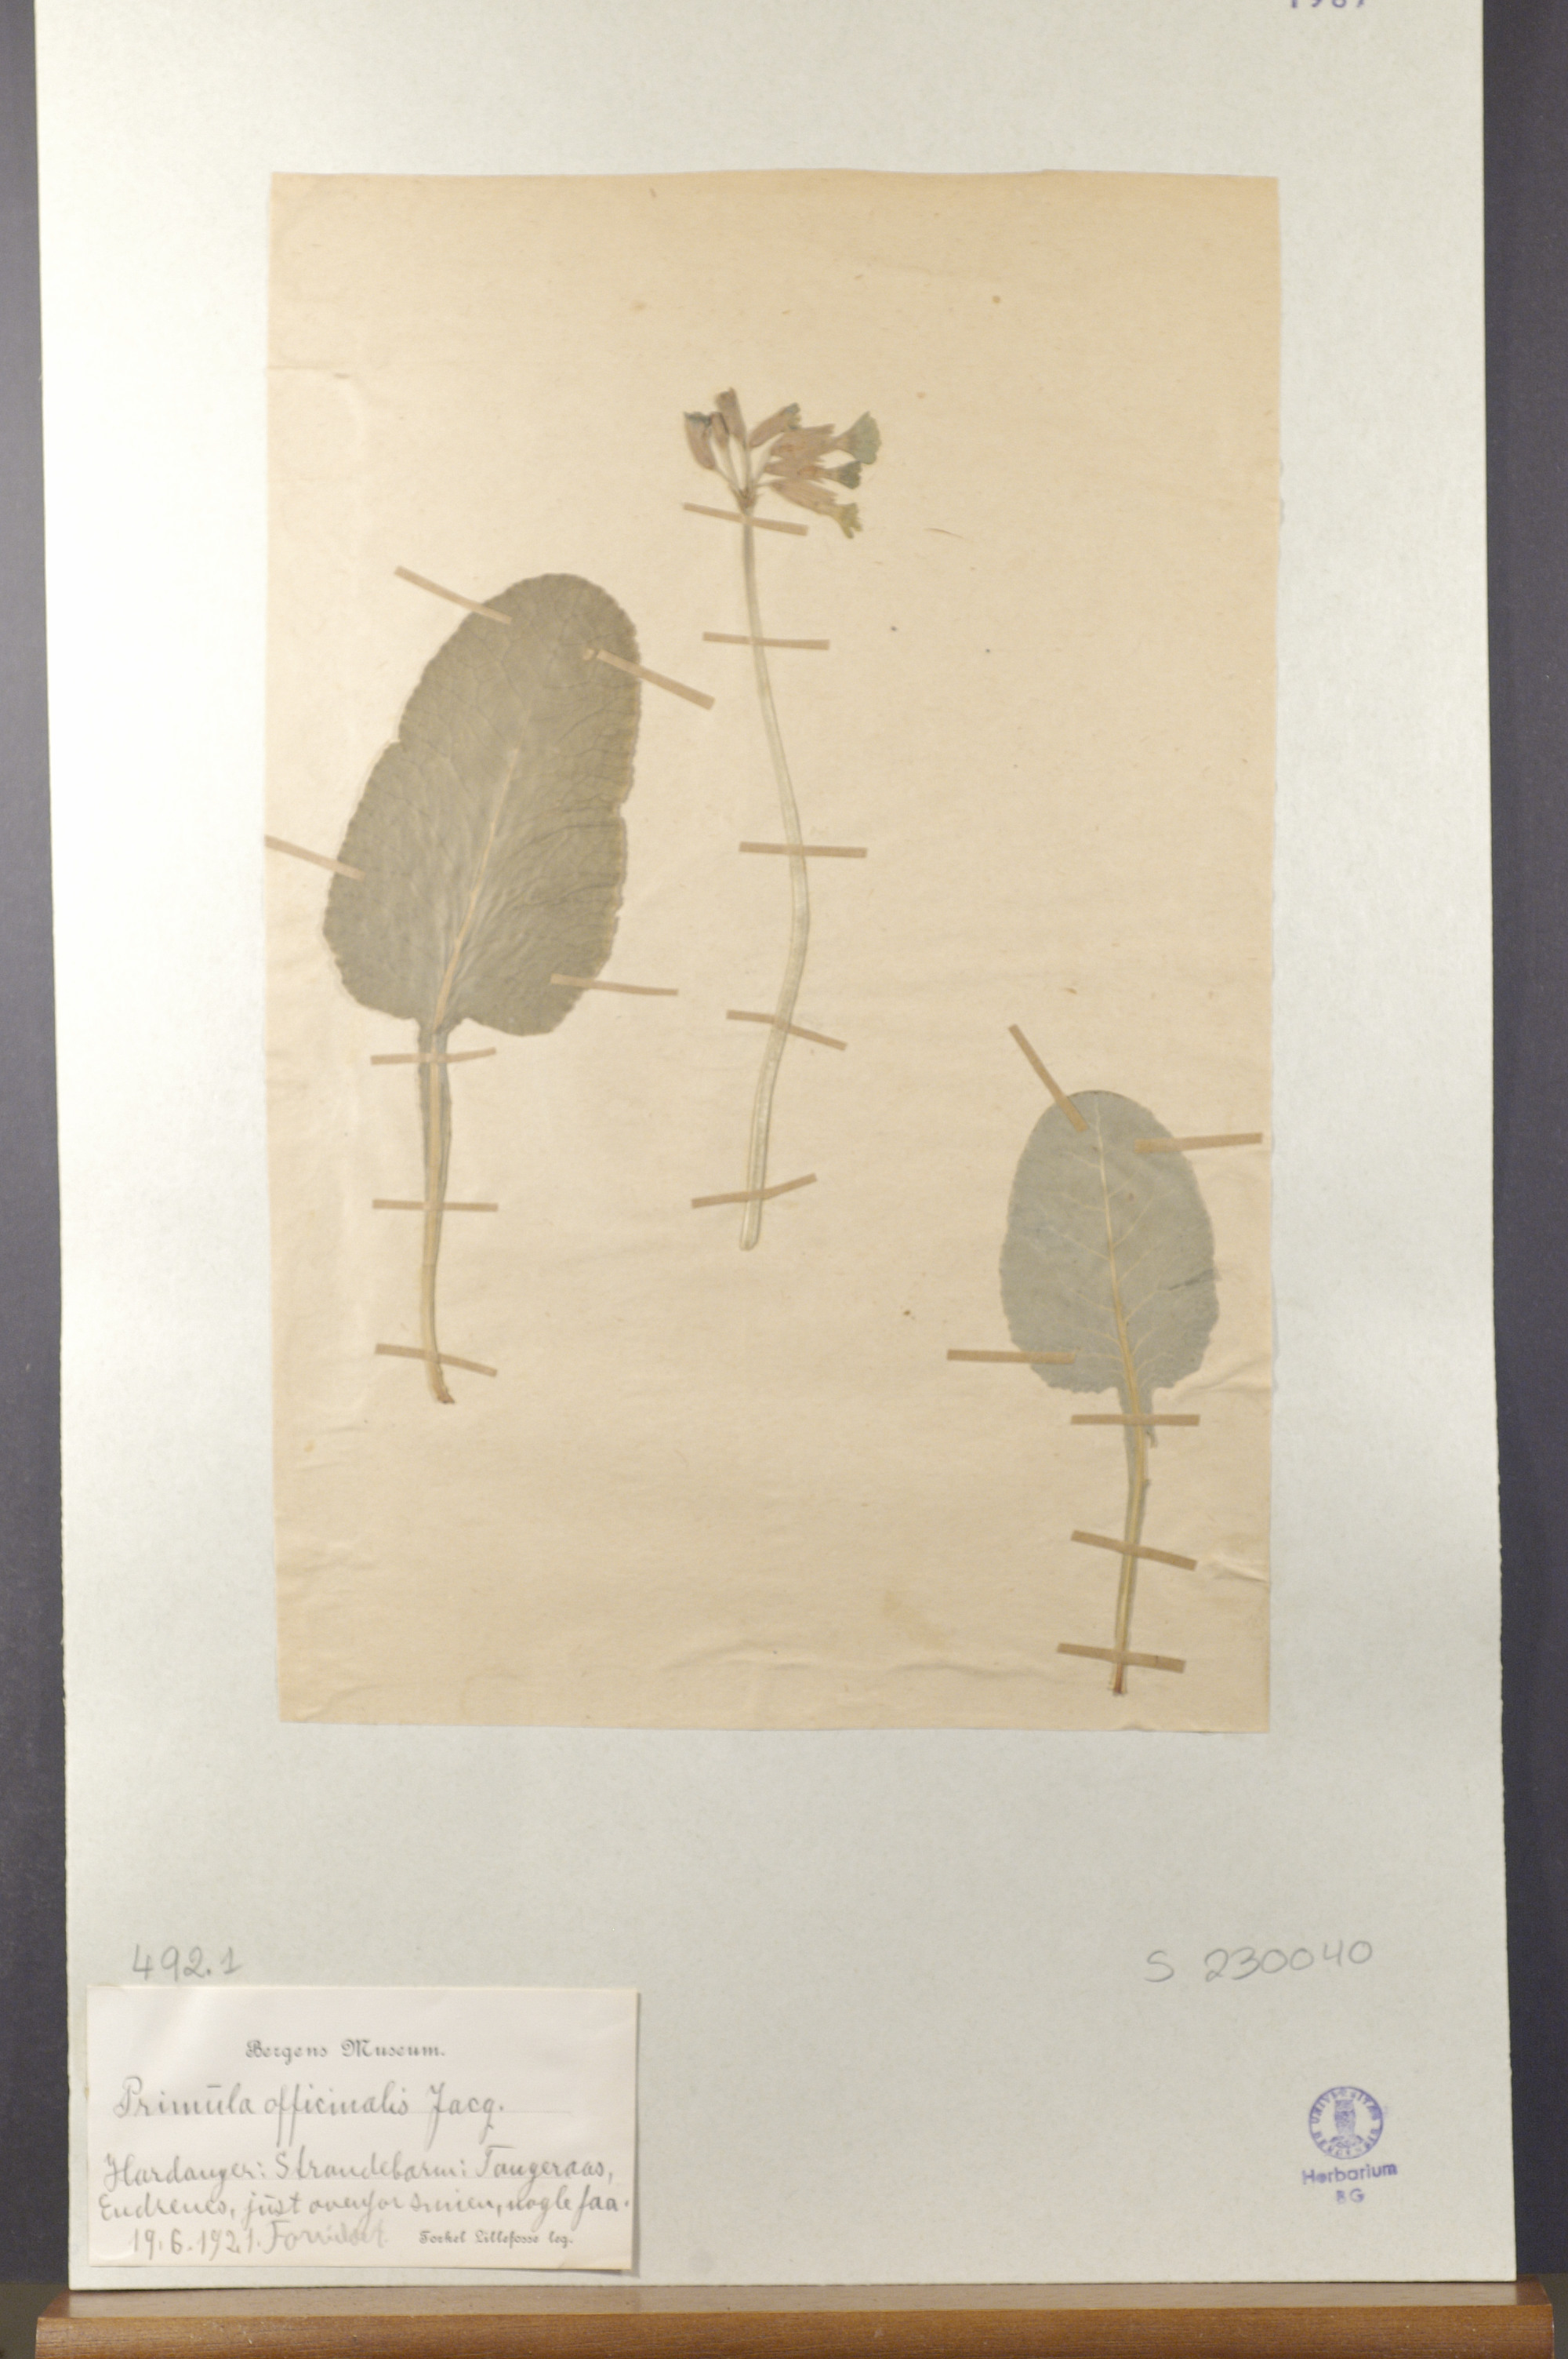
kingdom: Plantae
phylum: Tracheophyta
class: Magnoliopsida
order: Ericales
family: Primulaceae
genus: Primula
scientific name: Primula veris
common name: Cowslip
